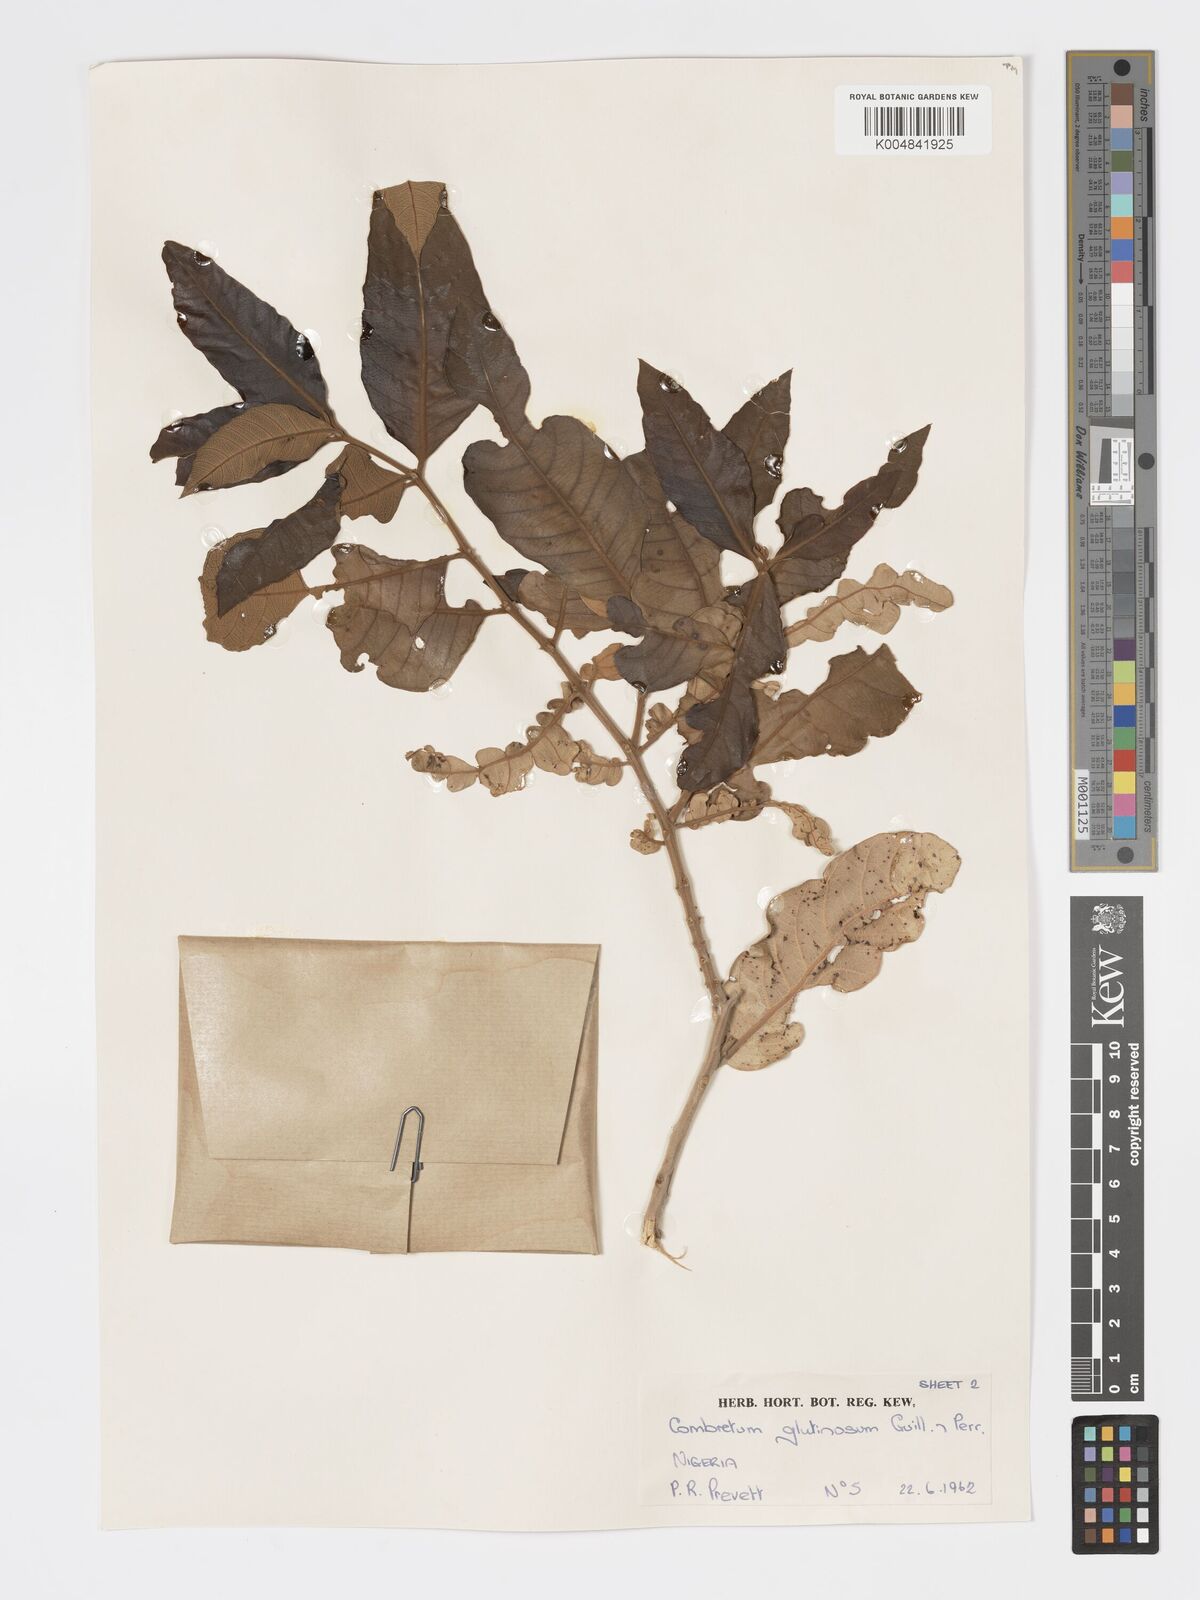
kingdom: Plantae
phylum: Tracheophyta
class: Magnoliopsida
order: Myrtales
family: Combretaceae
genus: Combretum
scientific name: Combretum
